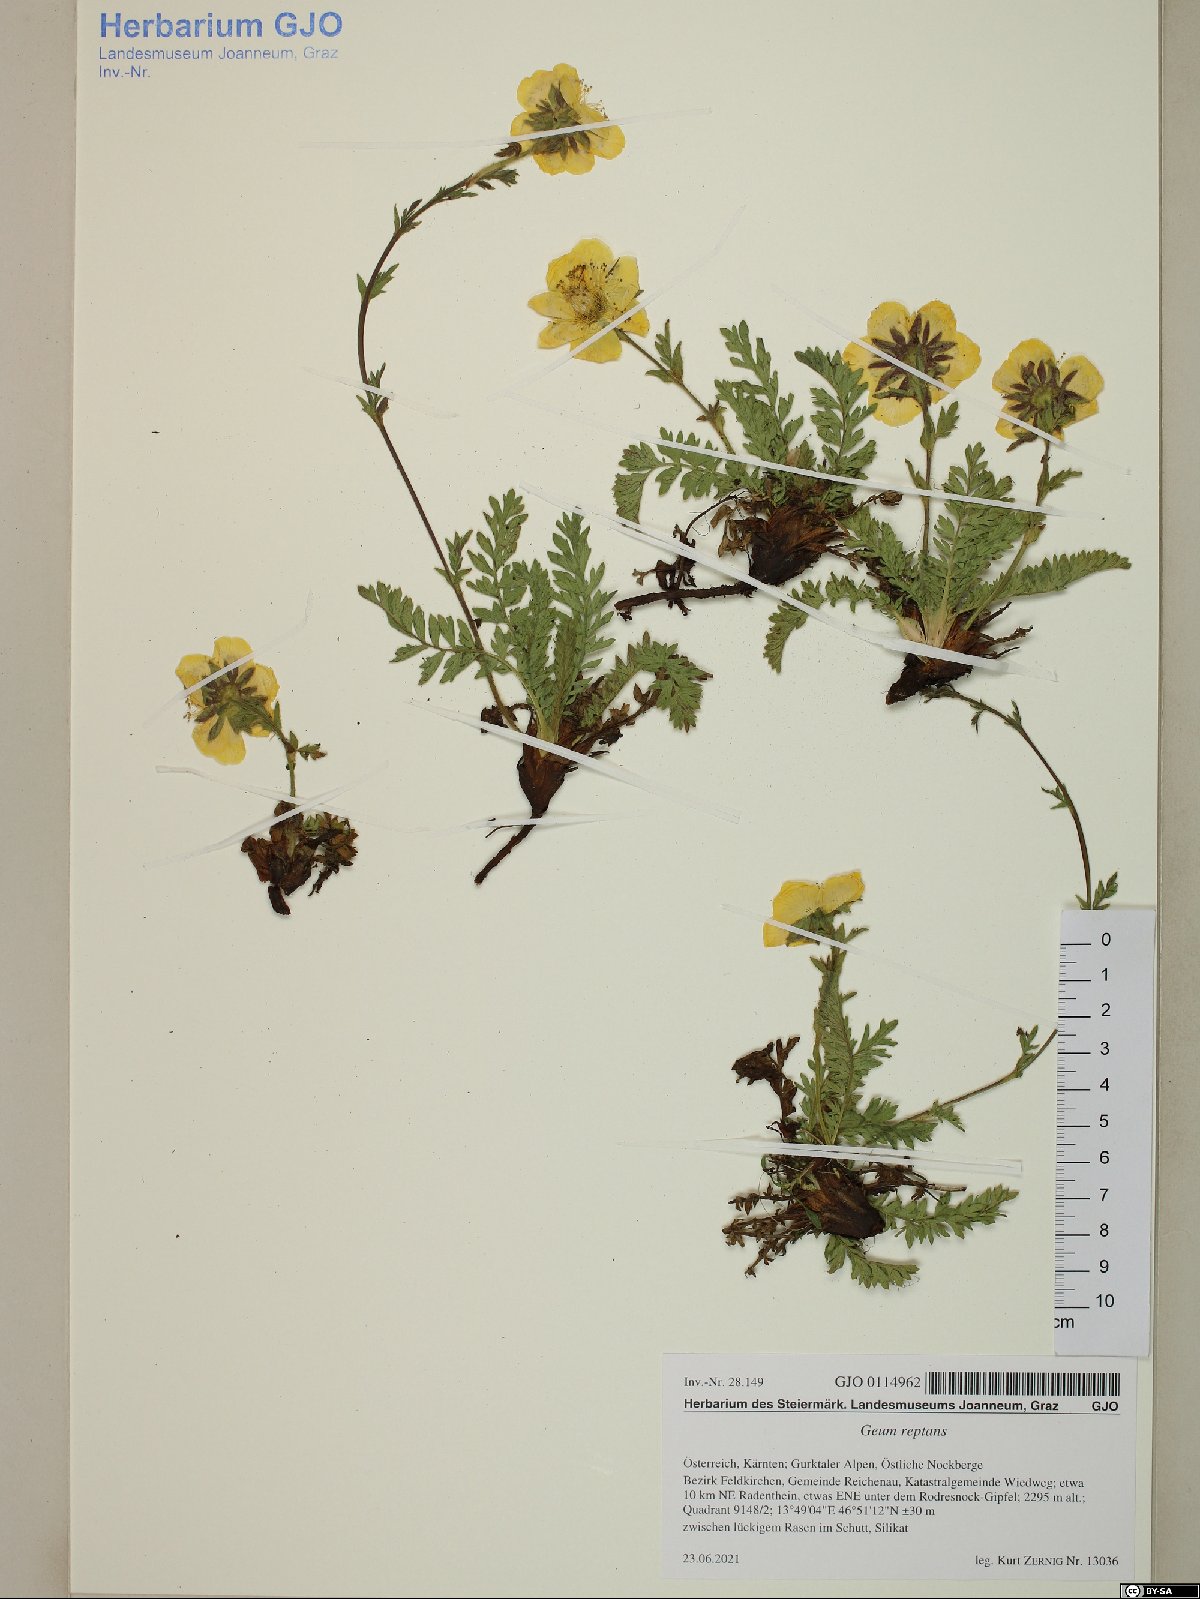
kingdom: Plantae
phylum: Tracheophyta
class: Magnoliopsida
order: Rosales
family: Rosaceae
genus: Geum
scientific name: Geum reptans
